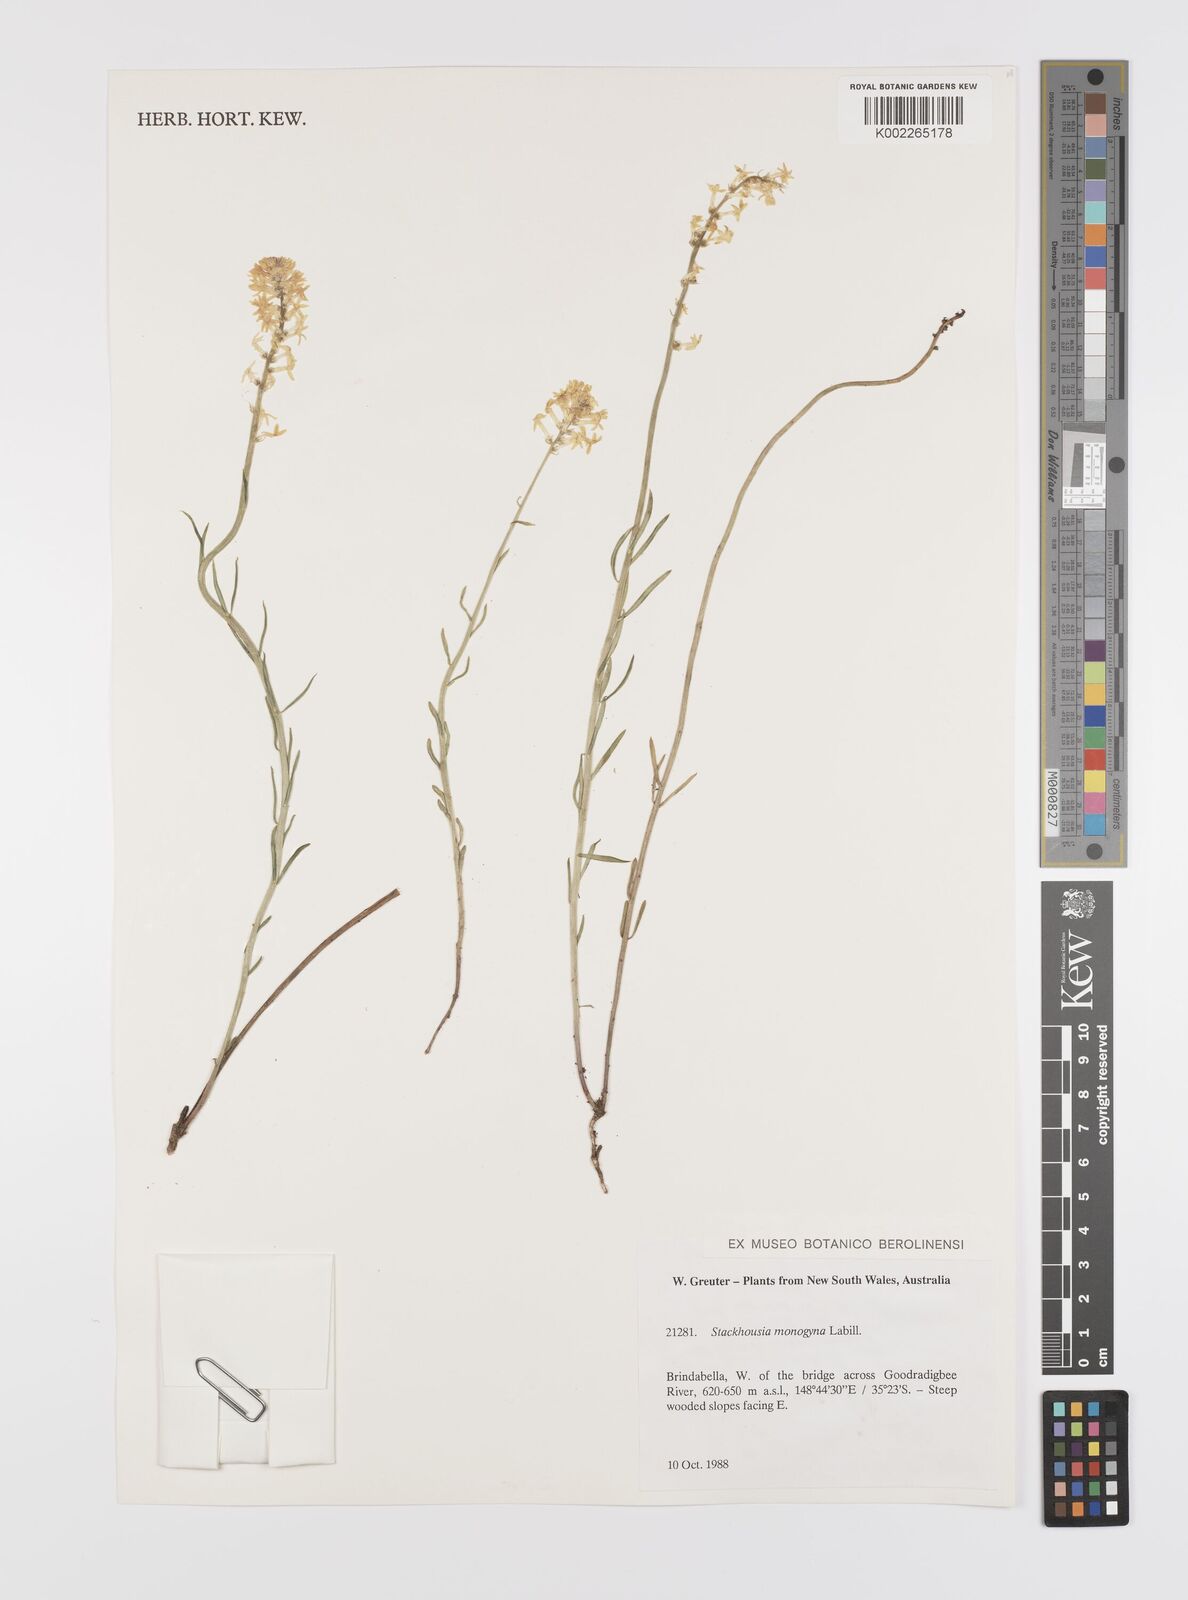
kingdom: Plantae
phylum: Tracheophyta
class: Magnoliopsida
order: Celastrales
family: Celastraceae
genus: Stackhousia
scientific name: Stackhousia monogyna
